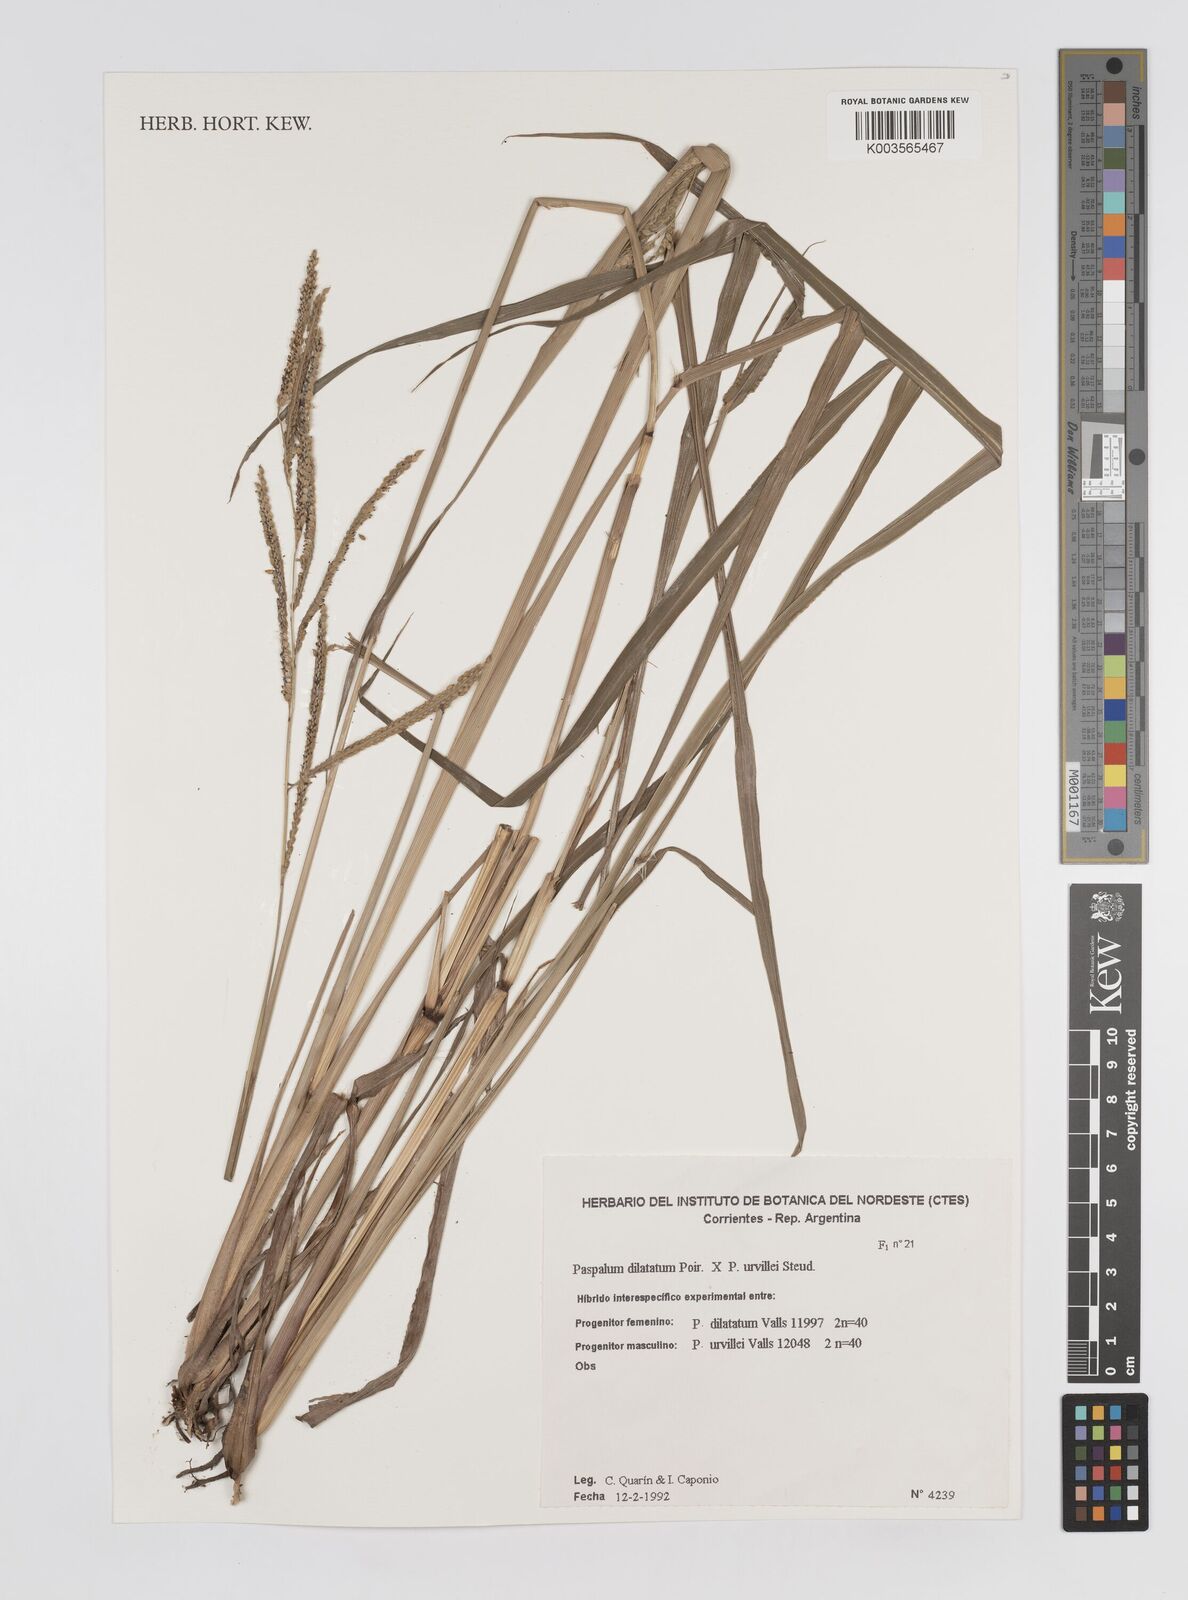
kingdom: Plantae
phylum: Tracheophyta
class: Liliopsida
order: Poales
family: Poaceae
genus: Paspalum
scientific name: Paspalum dilatatum
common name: Dallisgrass
